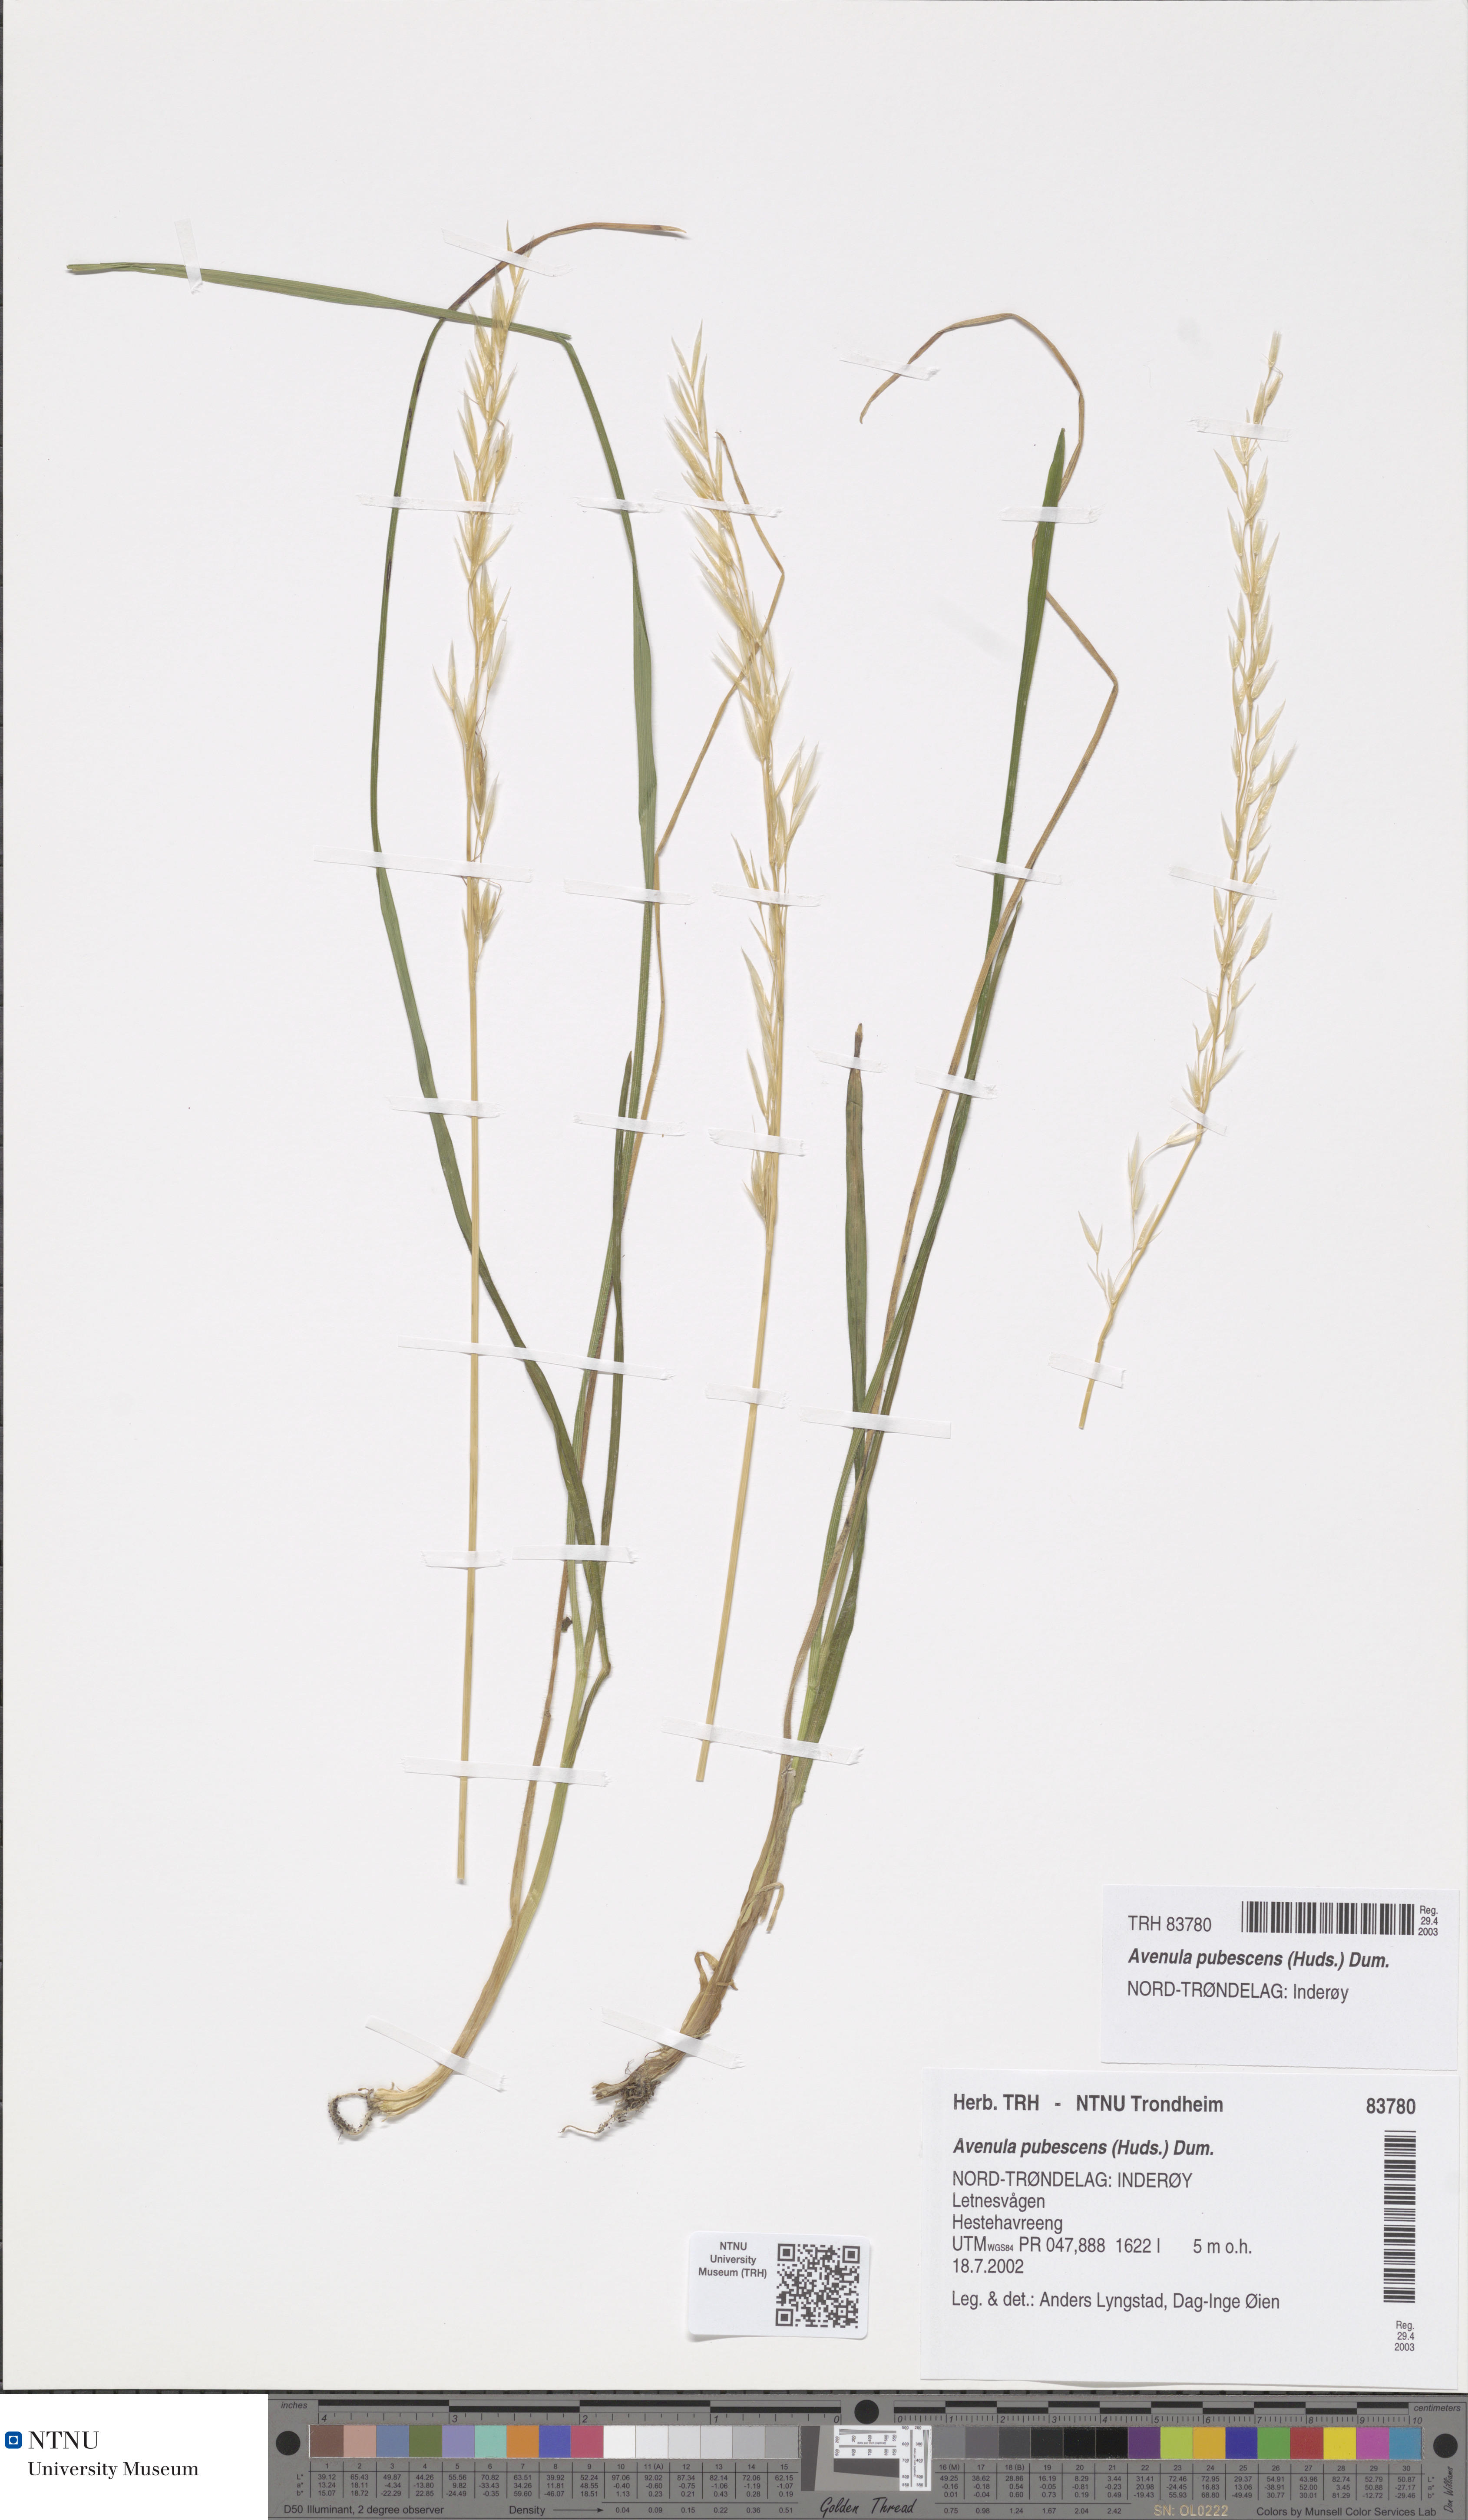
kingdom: Plantae
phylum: Tracheophyta
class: Liliopsida
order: Poales
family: Poaceae
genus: Avenula
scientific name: Avenula pubescens
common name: Downy alpine oatgrass
